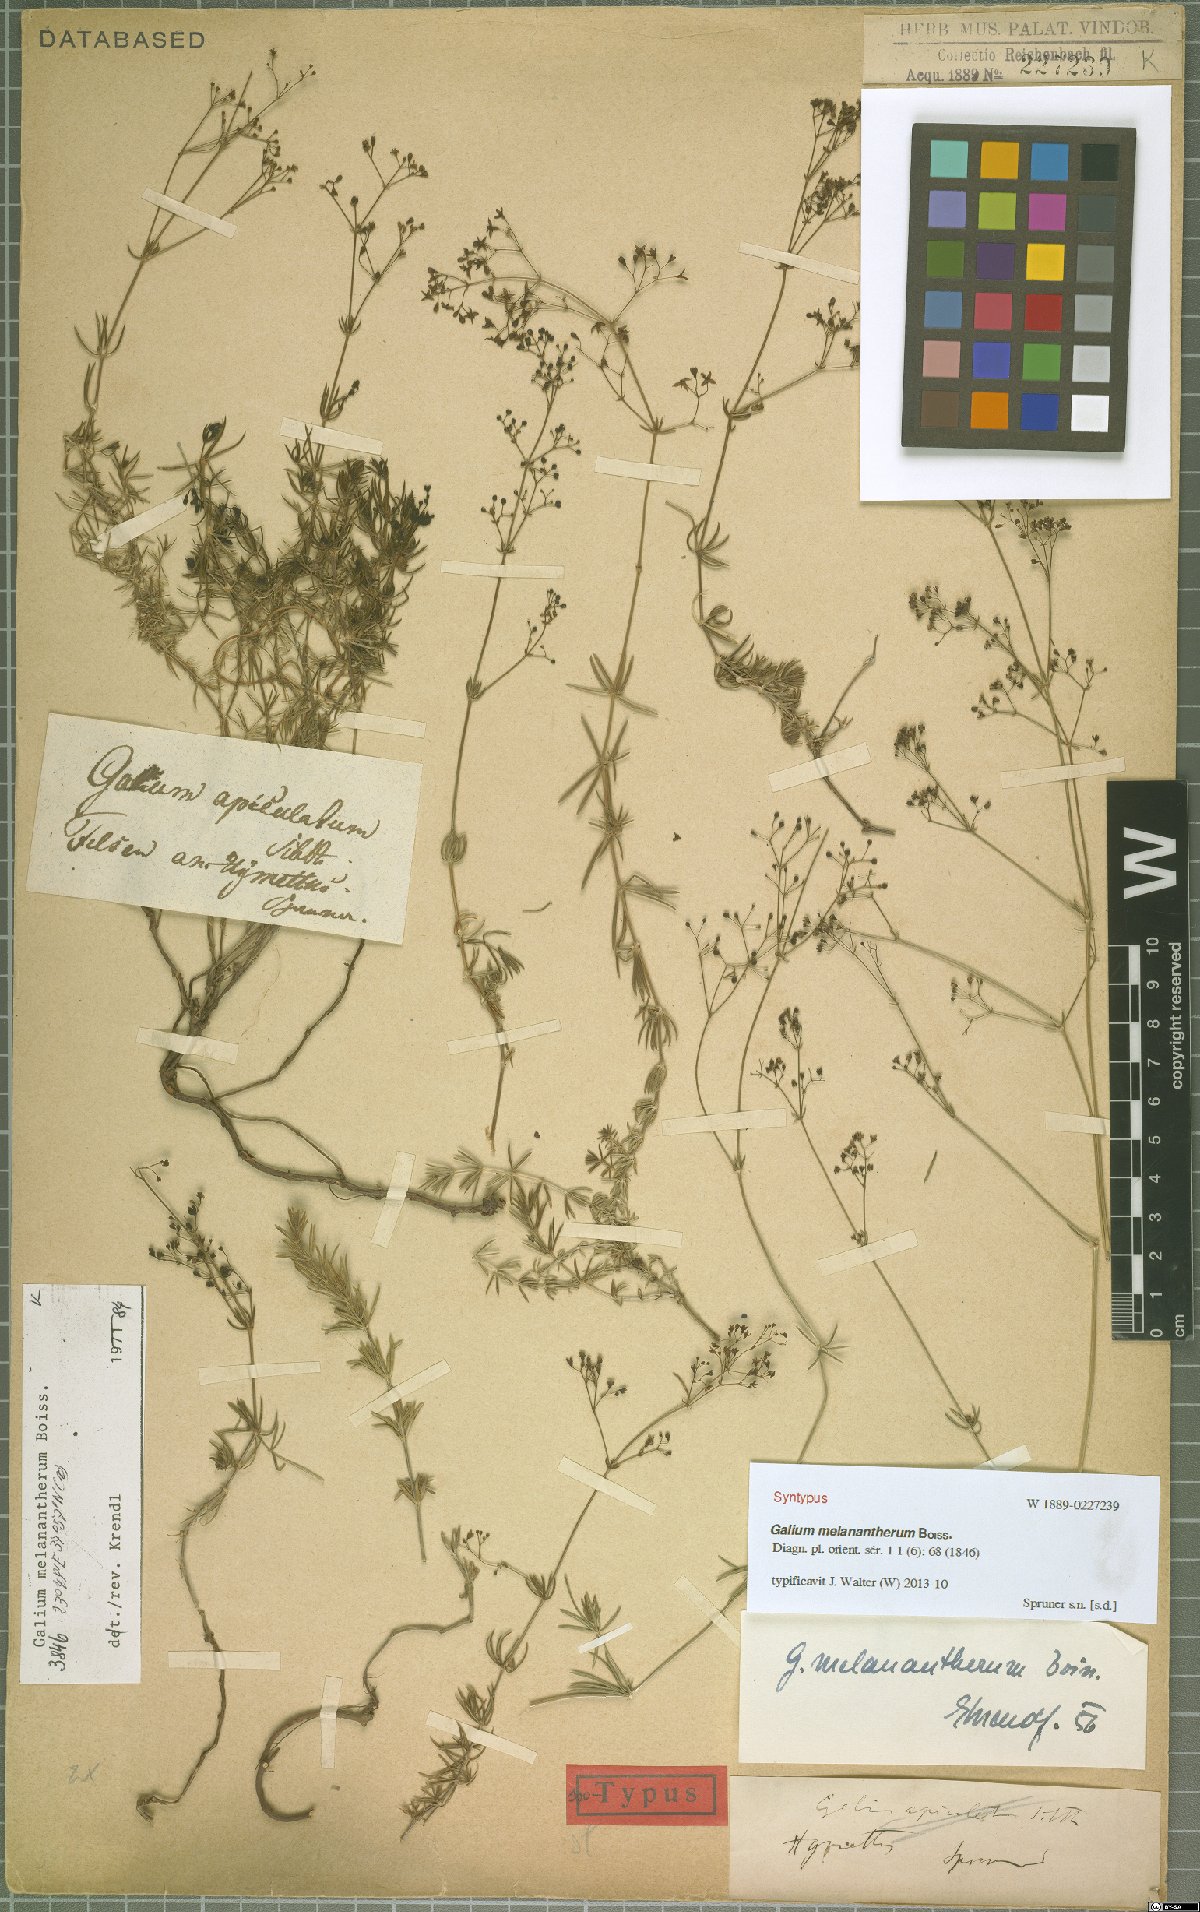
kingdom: Plantae
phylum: Tracheophyta
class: Magnoliopsida
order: Gentianales
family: Rubiaceae
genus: Galium
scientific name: Galium melanantherum
